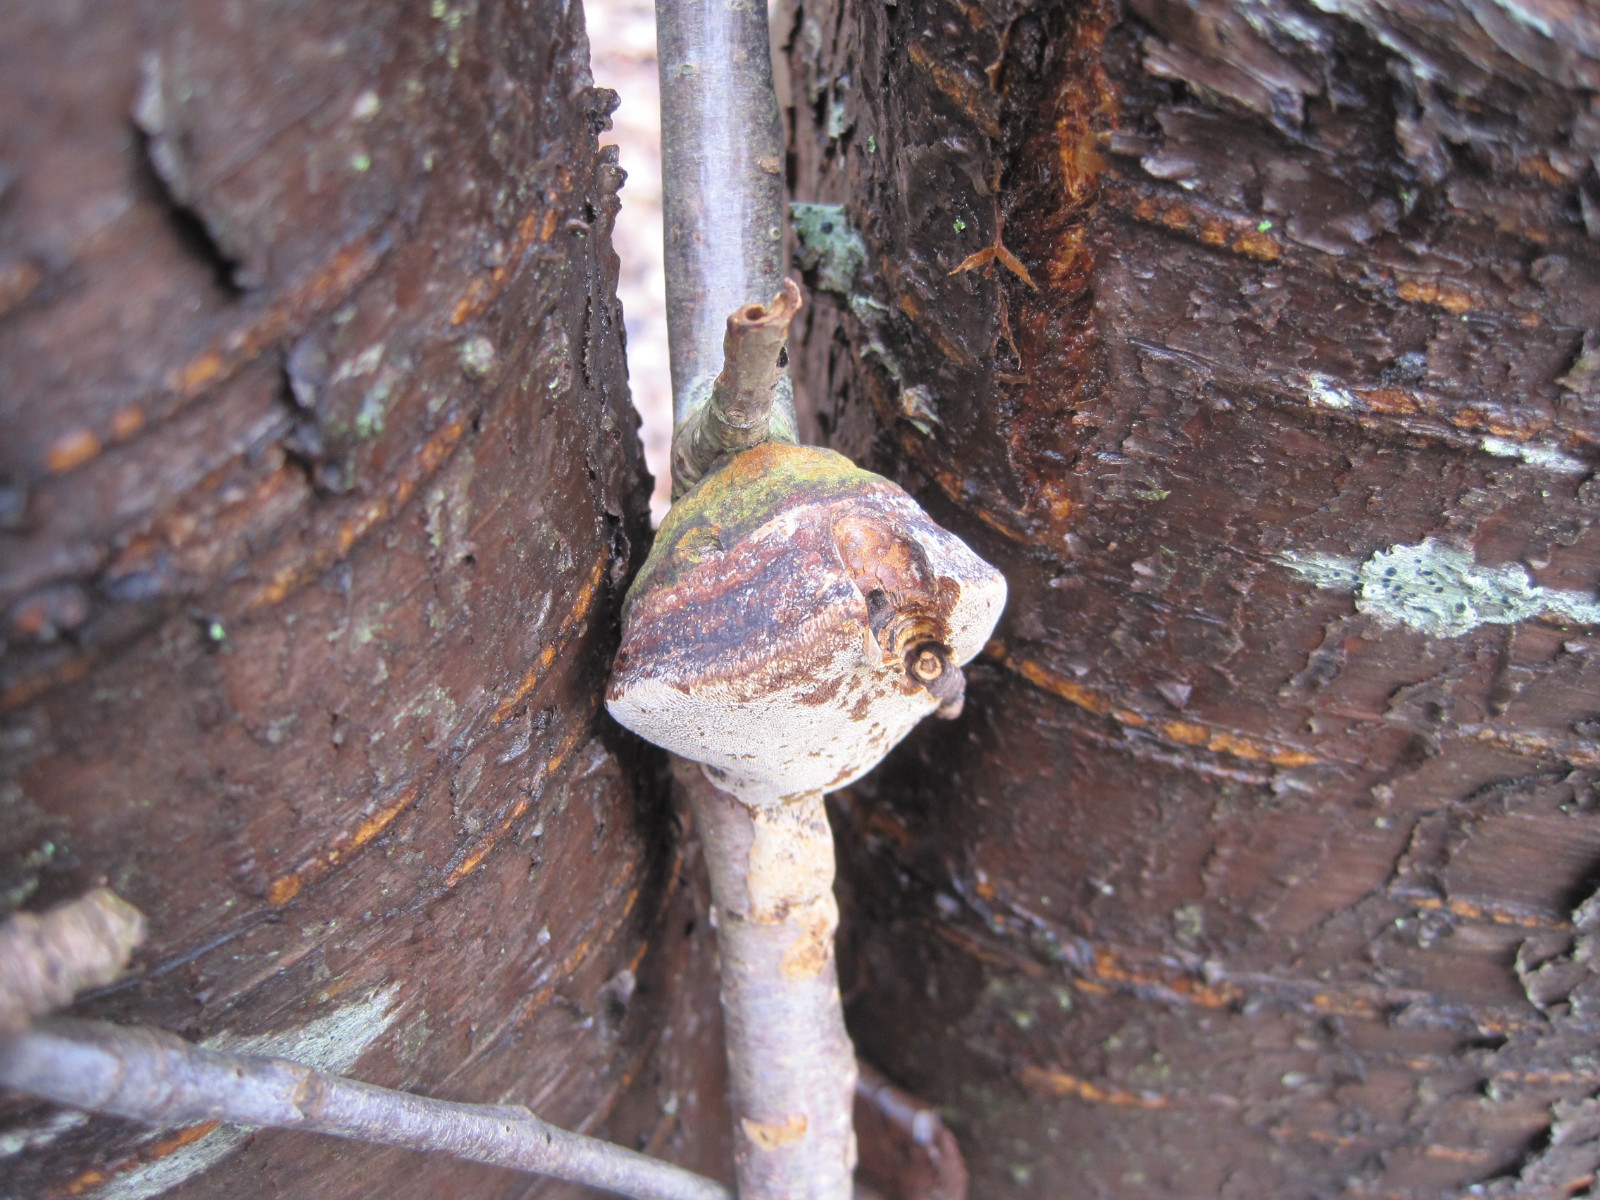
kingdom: Fungi
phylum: Basidiomycota
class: Agaricomycetes
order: Hymenochaetales
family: Hymenochaetaceae
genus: Phellinus
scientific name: Phellinus pomaceus
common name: blomme-ildporesvamp
